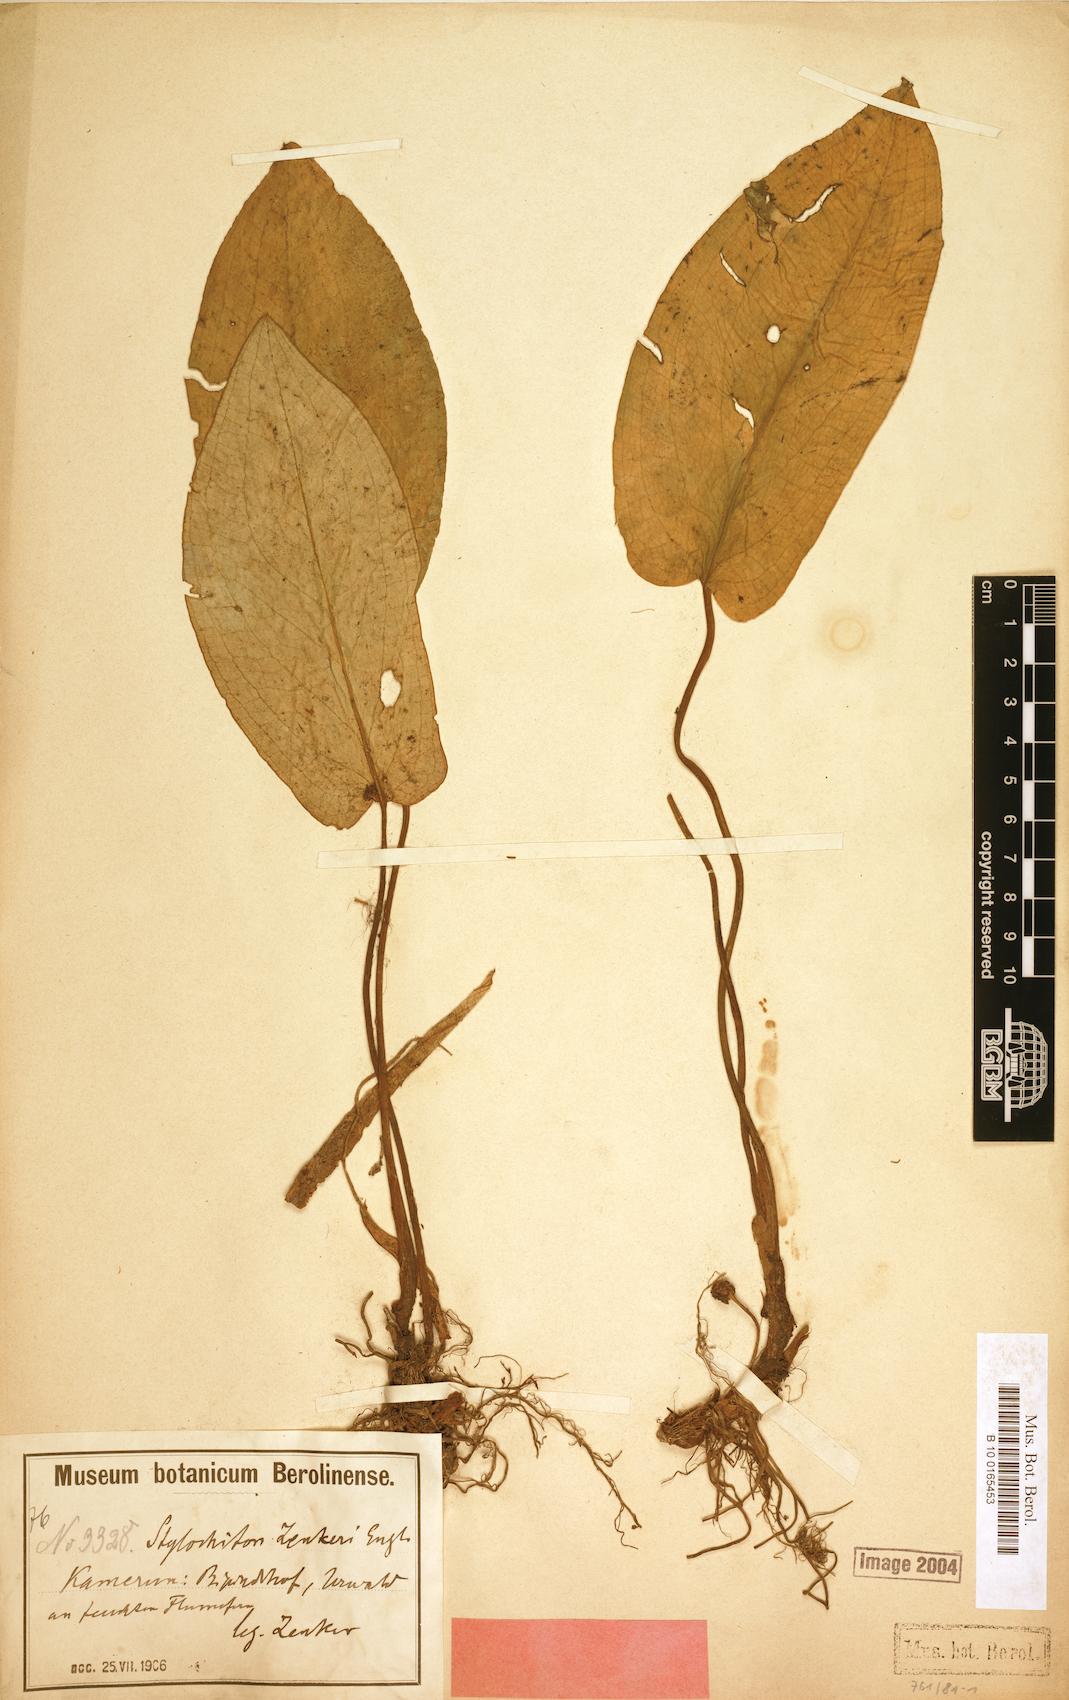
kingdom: Plantae
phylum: Tracheophyta
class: Liliopsida
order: Alismatales
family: Araceae
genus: Stylochaeton
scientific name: Stylochaeton zenkeri
